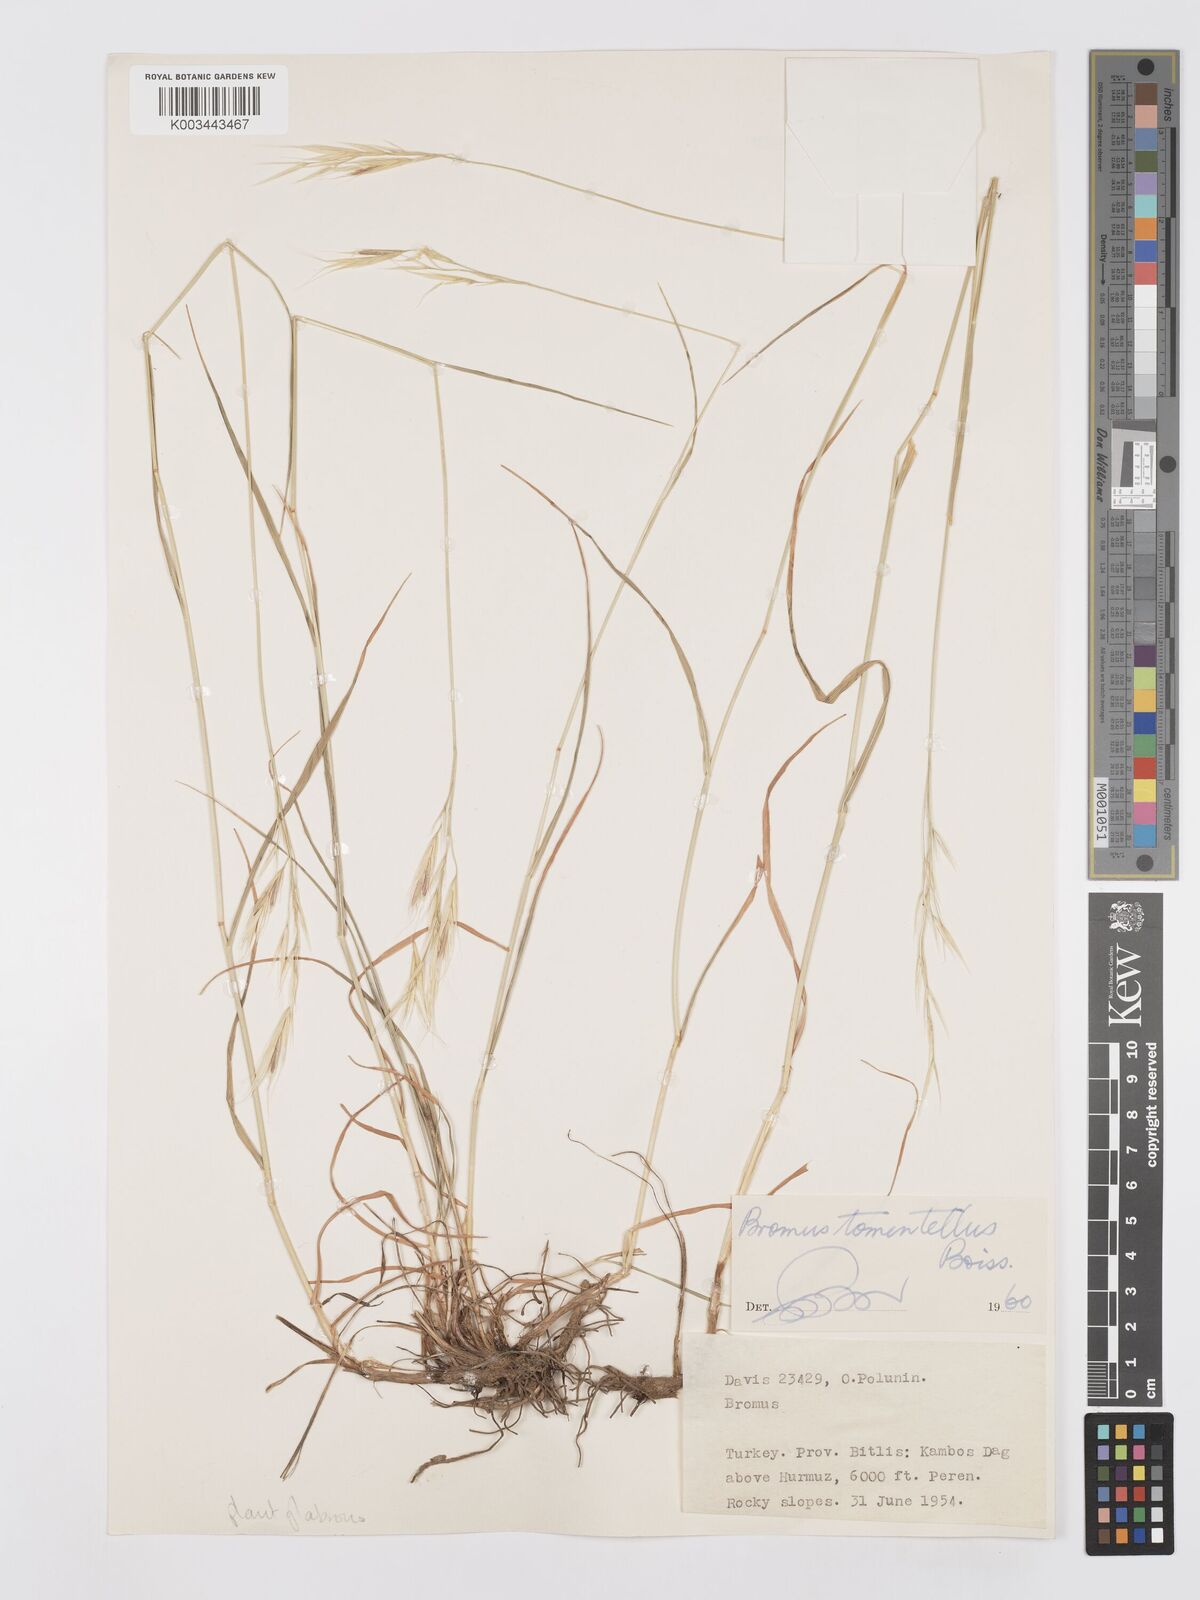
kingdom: Plantae
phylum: Tracheophyta
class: Liliopsida
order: Poales
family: Poaceae
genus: Bromus
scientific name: Bromus tomentellus
